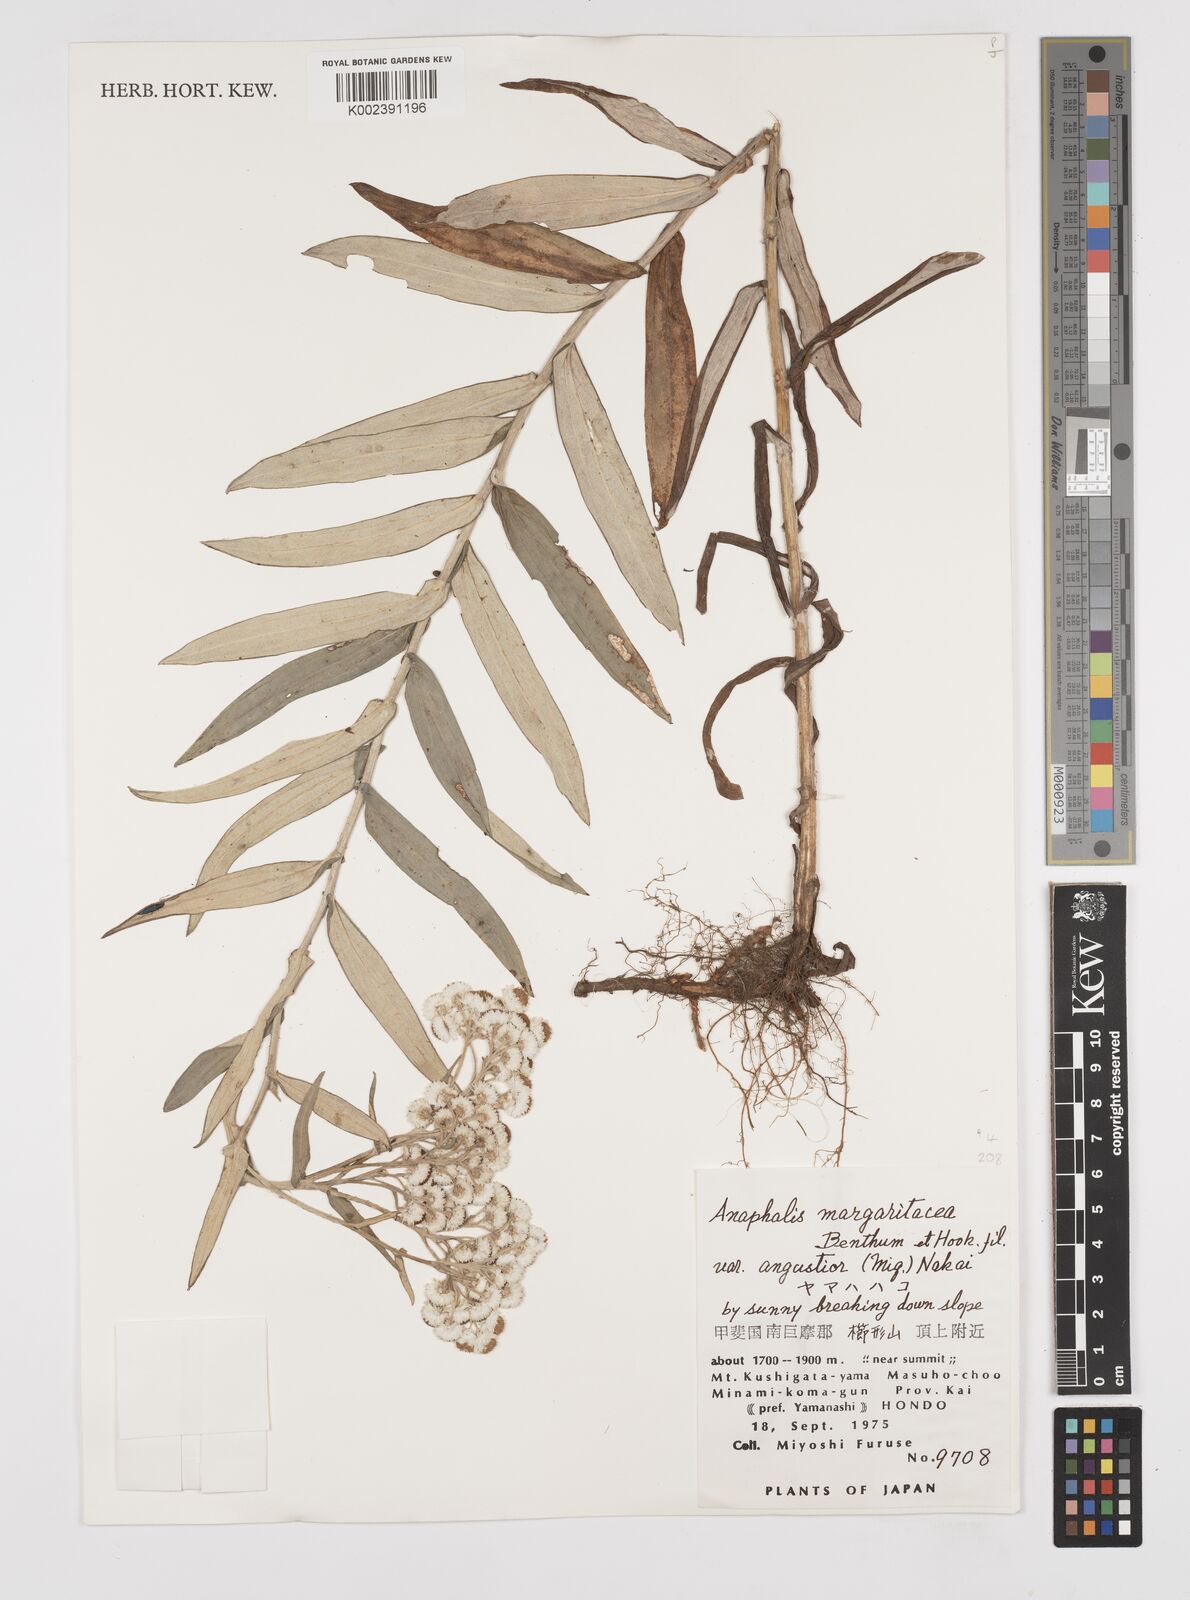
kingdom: Plantae
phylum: Tracheophyta
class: Magnoliopsida
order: Asterales
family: Asteraceae
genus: Anaphalis
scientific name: Anaphalis margaritacea
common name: Pearly everlasting
